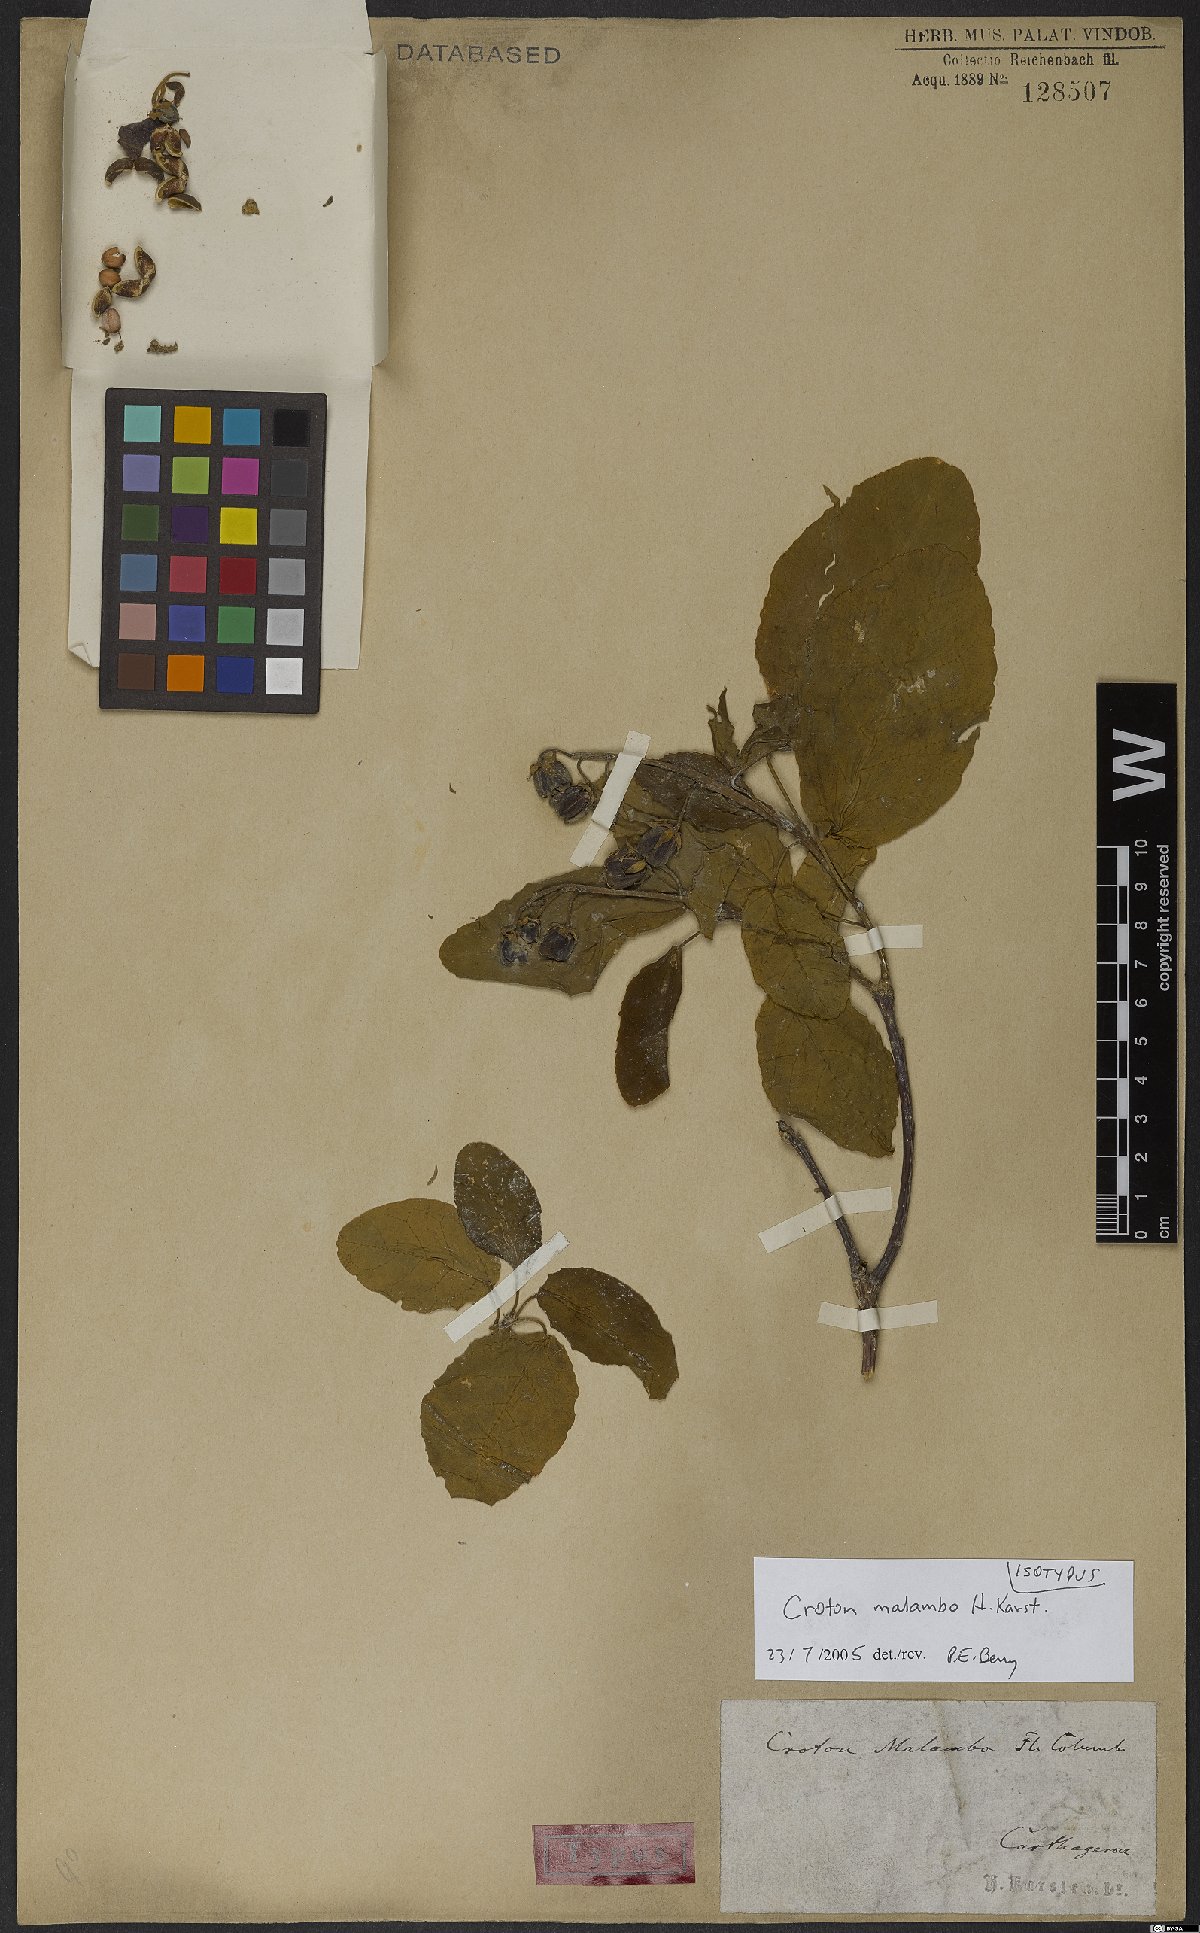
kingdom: Plantae
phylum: Tracheophyta
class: Magnoliopsida
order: Malpighiales
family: Euphorbiaceae
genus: Croton
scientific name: Croton malambo
